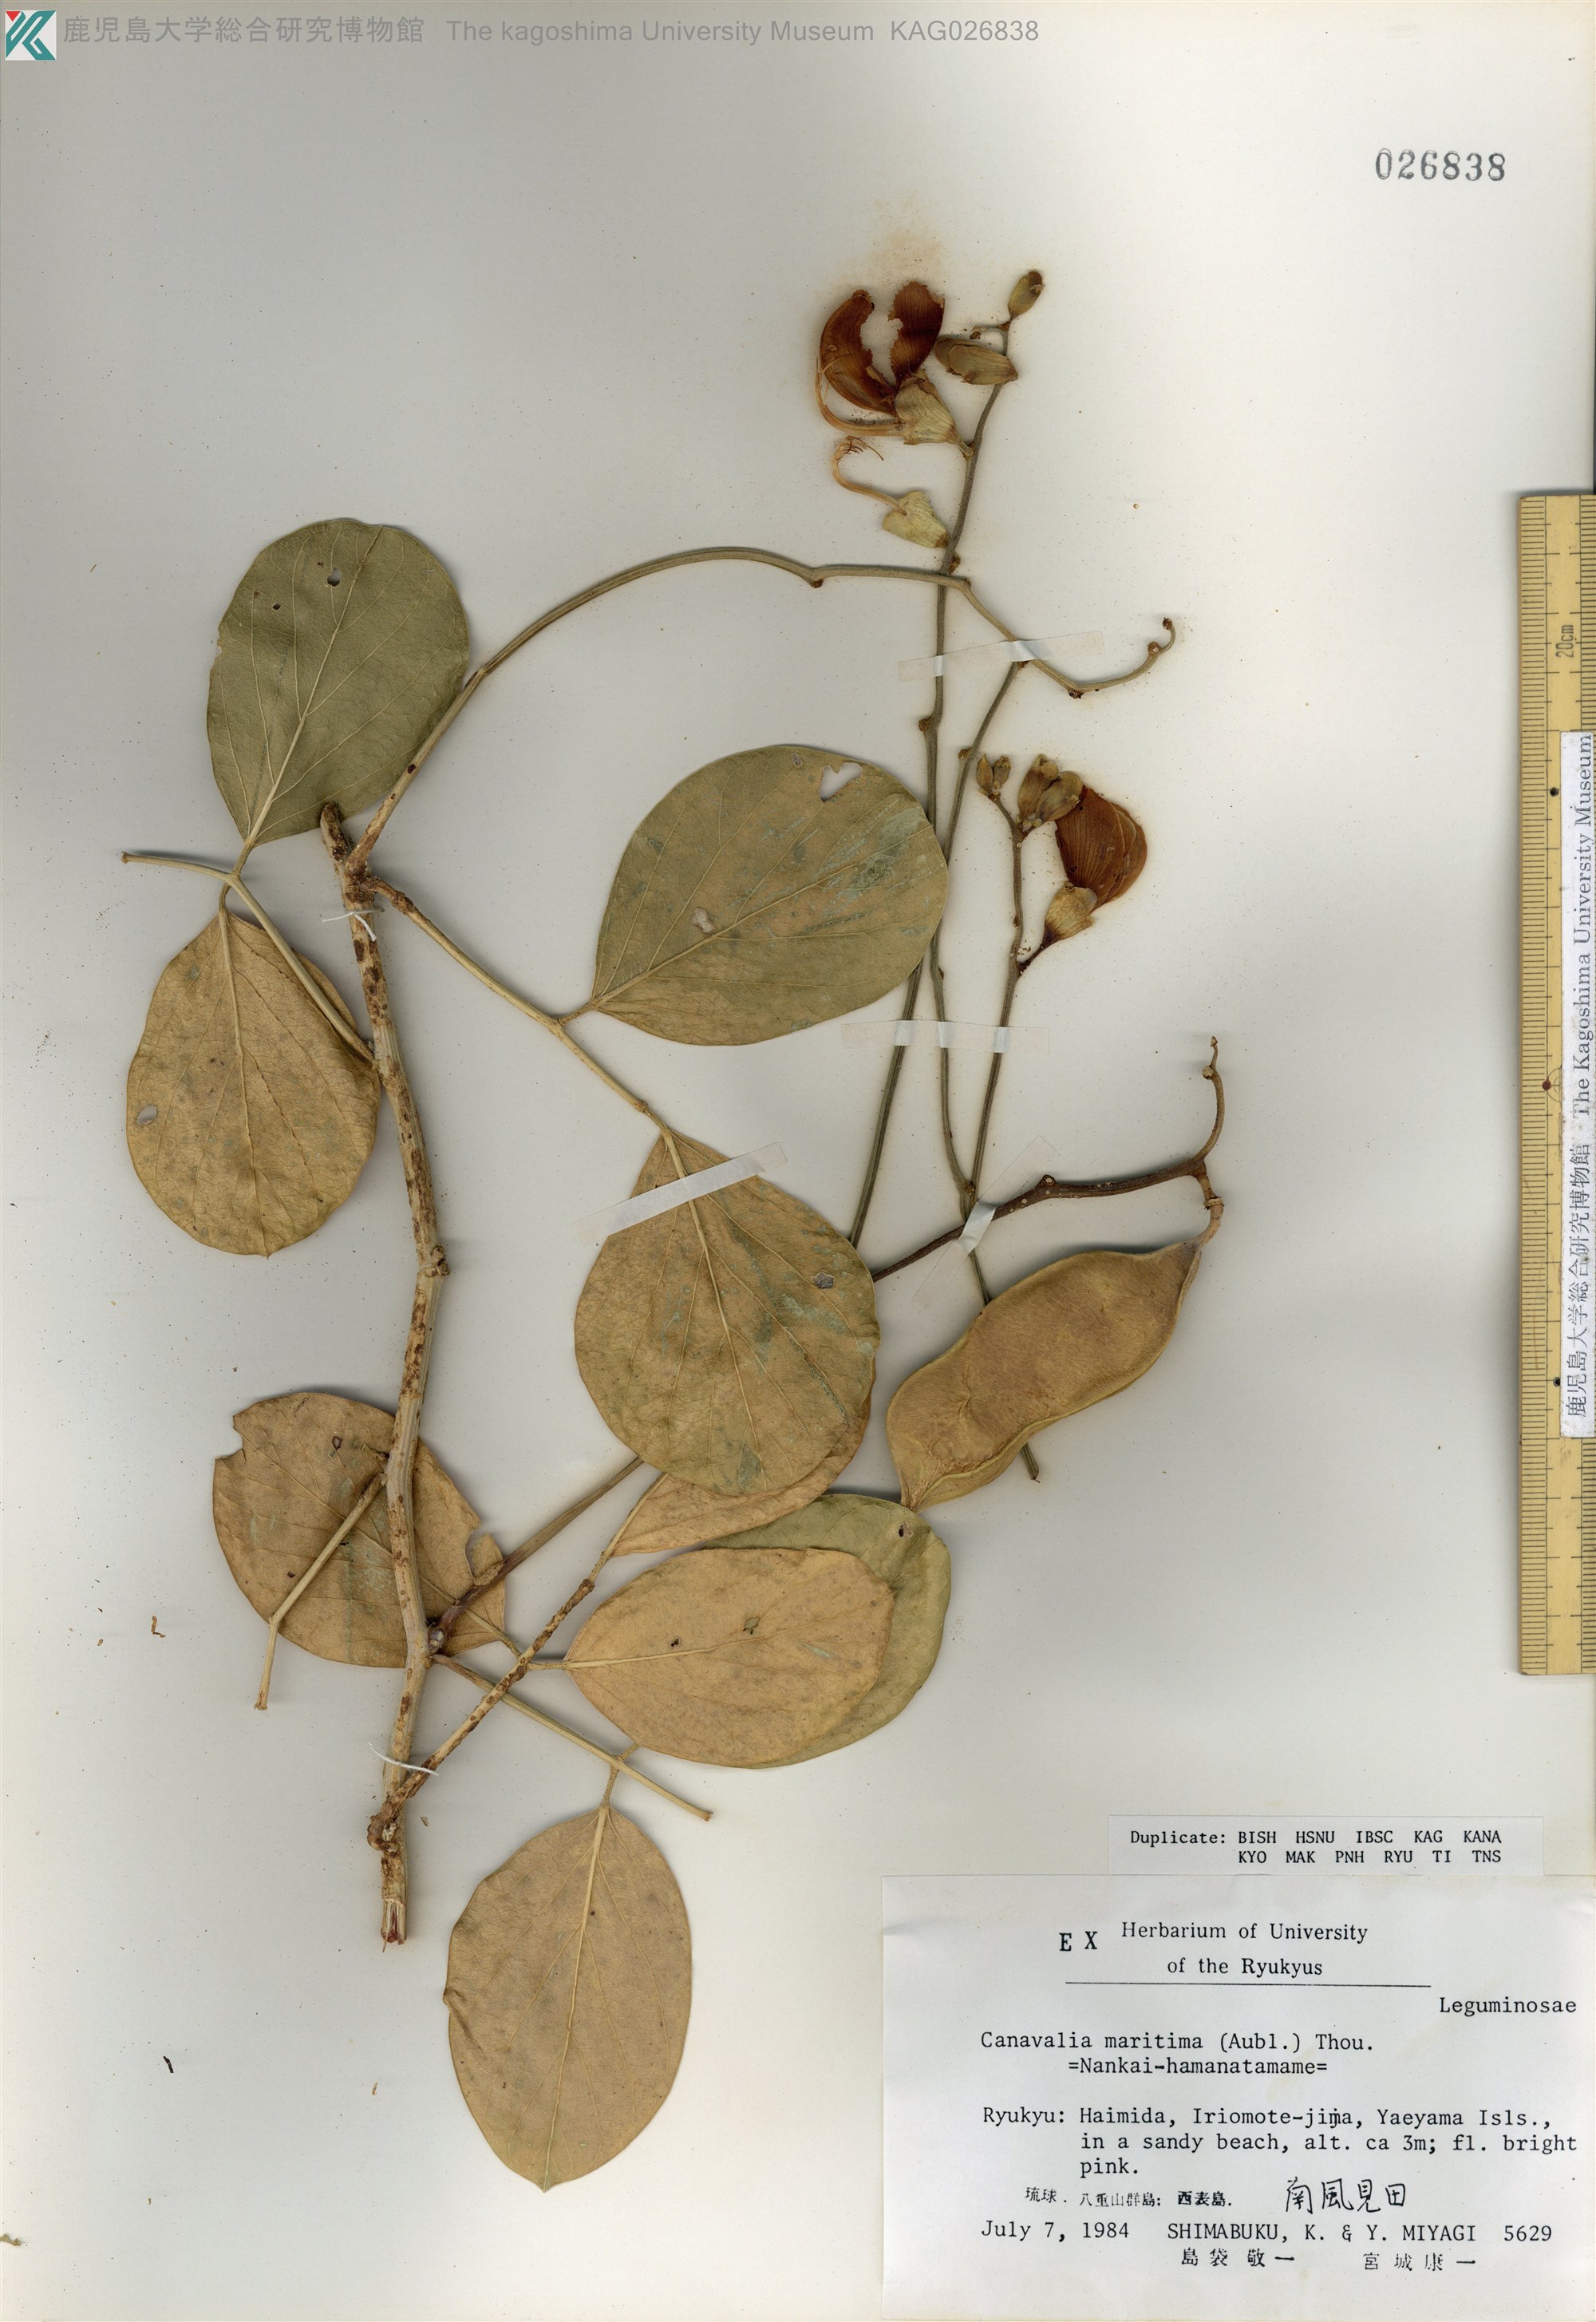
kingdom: Plantae
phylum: Tracheophyta
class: Magnoliopsida
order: Fabales
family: Fabaceae
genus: Canavalia
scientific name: Canavalia rosea
